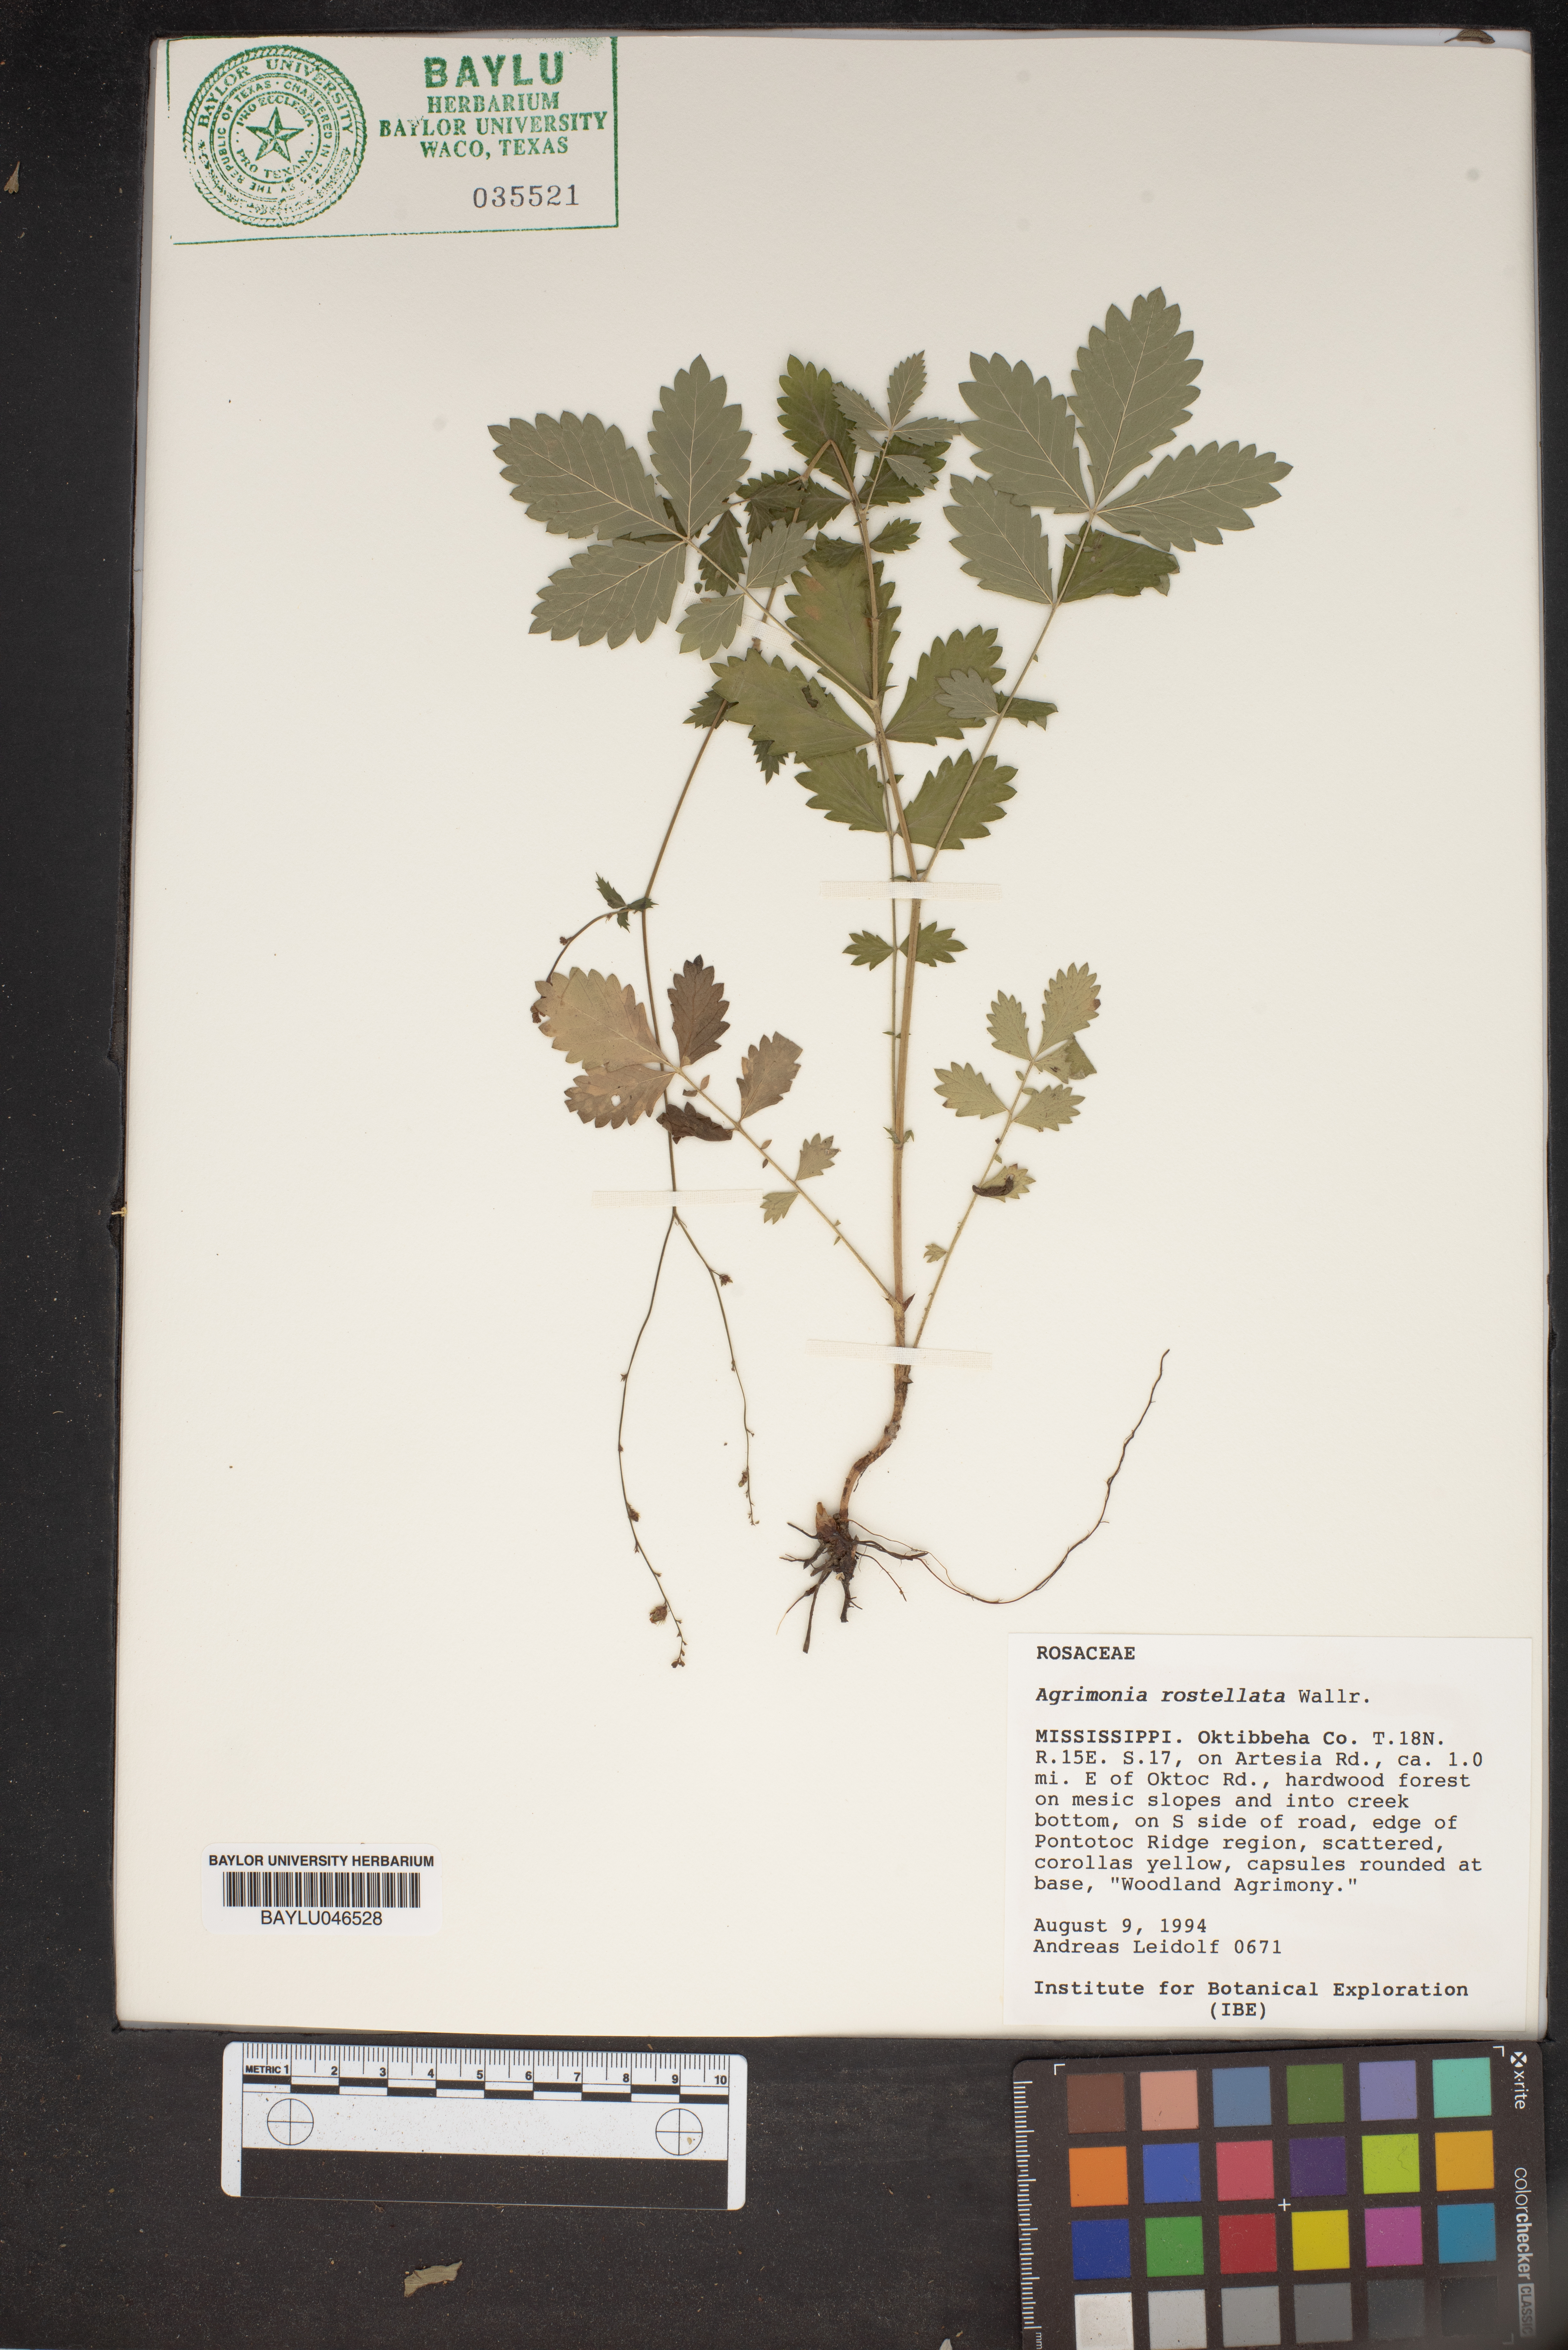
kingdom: Plantae
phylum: Tracheophyta
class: Magnoliopsida
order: Rosales
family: Rosaceae
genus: Agrimonia
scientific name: Agrimonia rostellata
